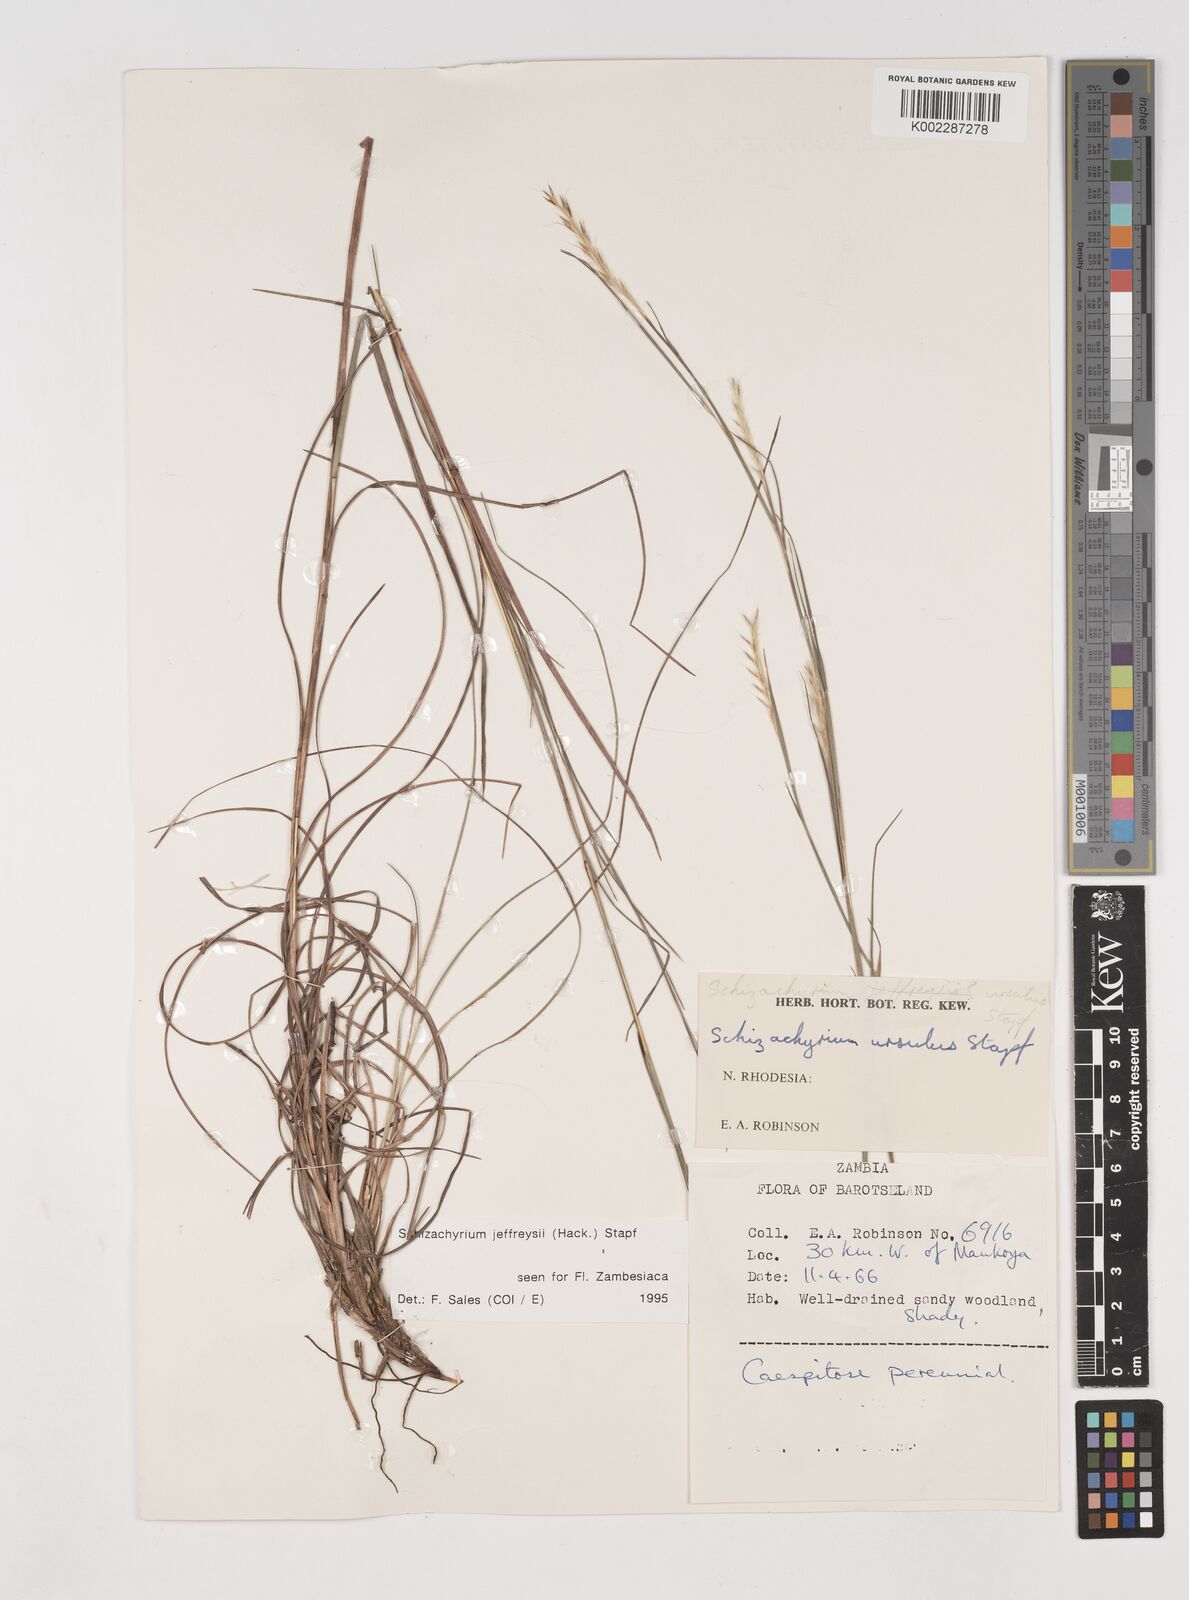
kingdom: Plantae
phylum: Tracheophyta
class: Liliopsida
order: Poales
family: Poaceae
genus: Schizachyrium
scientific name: Schizachyrium jeffreysii
